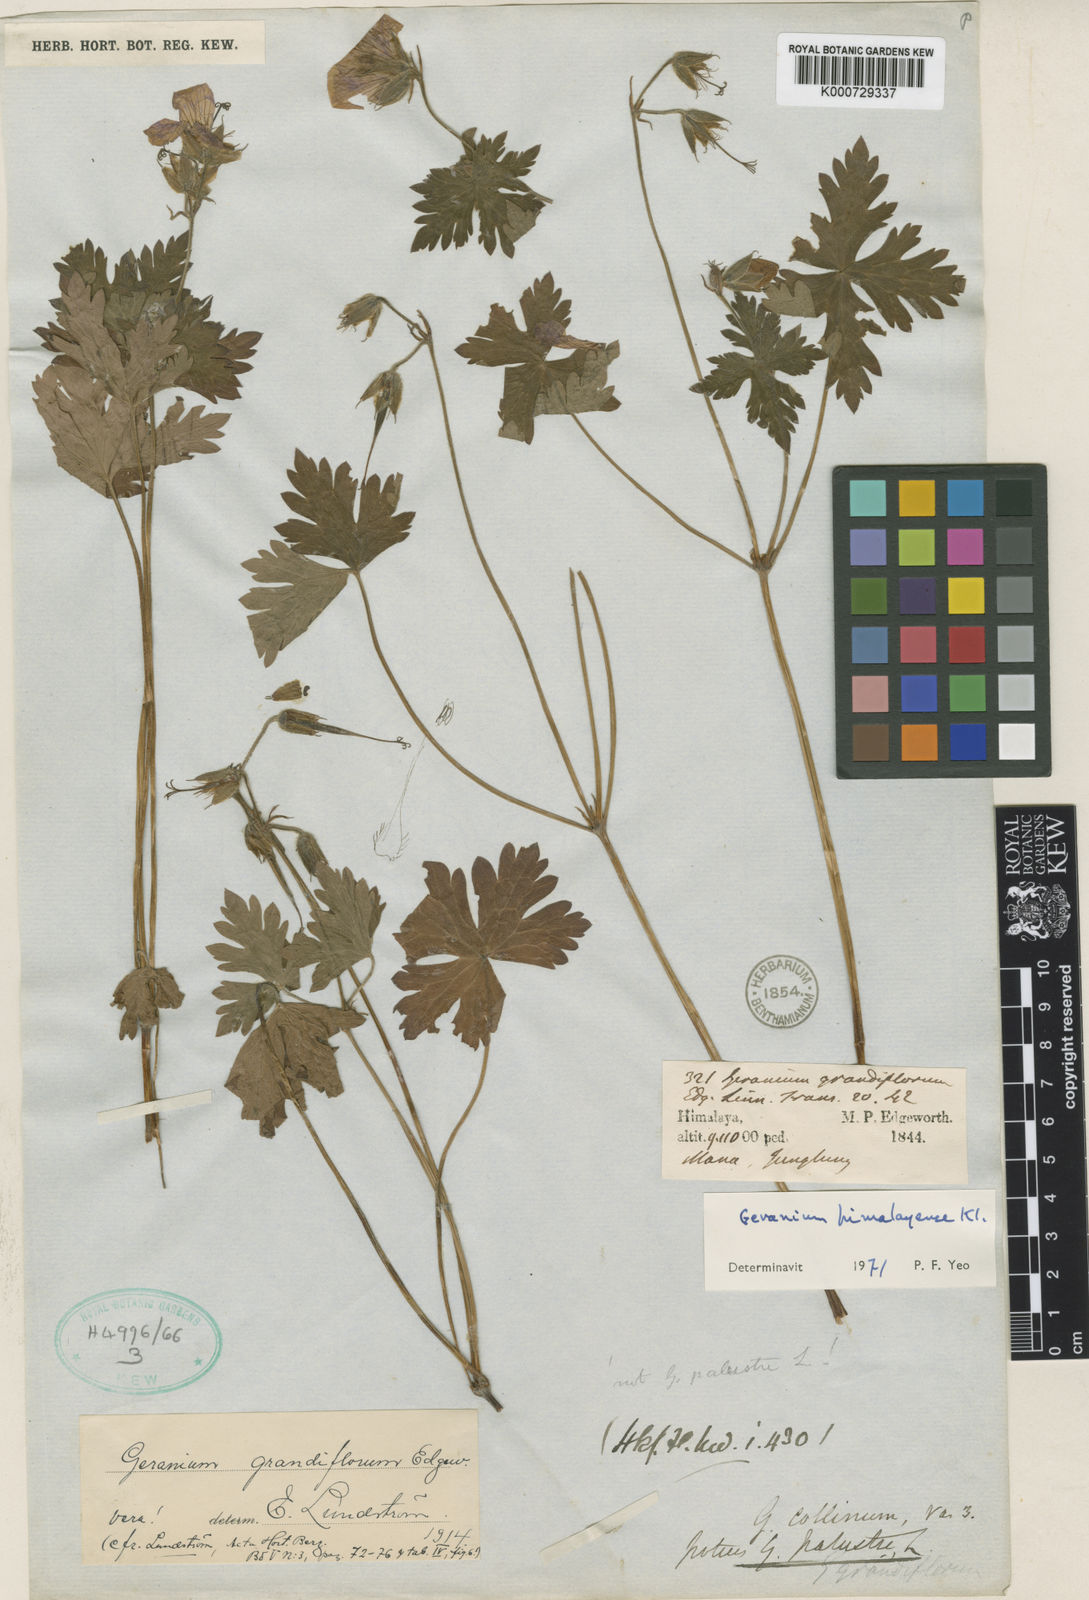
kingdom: Plantae
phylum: Tracheophyta
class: Magnoliopsida
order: Geraniales
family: Geraniaceae
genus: Geranium
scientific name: Geranium himalayense
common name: Himalayan crane's-bill
